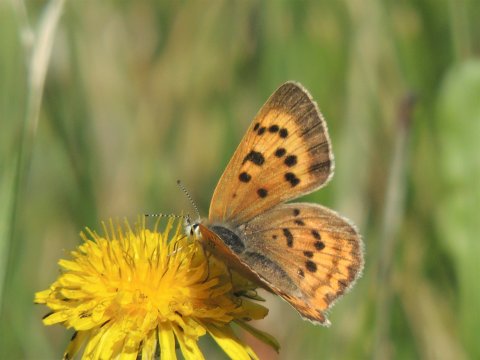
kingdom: Animalia
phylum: Arthropoda
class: Insecta
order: Lepidoptera
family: Sesiidae
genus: Sesia
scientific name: Sesia Lycaena helloides
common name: Purplish Copper
